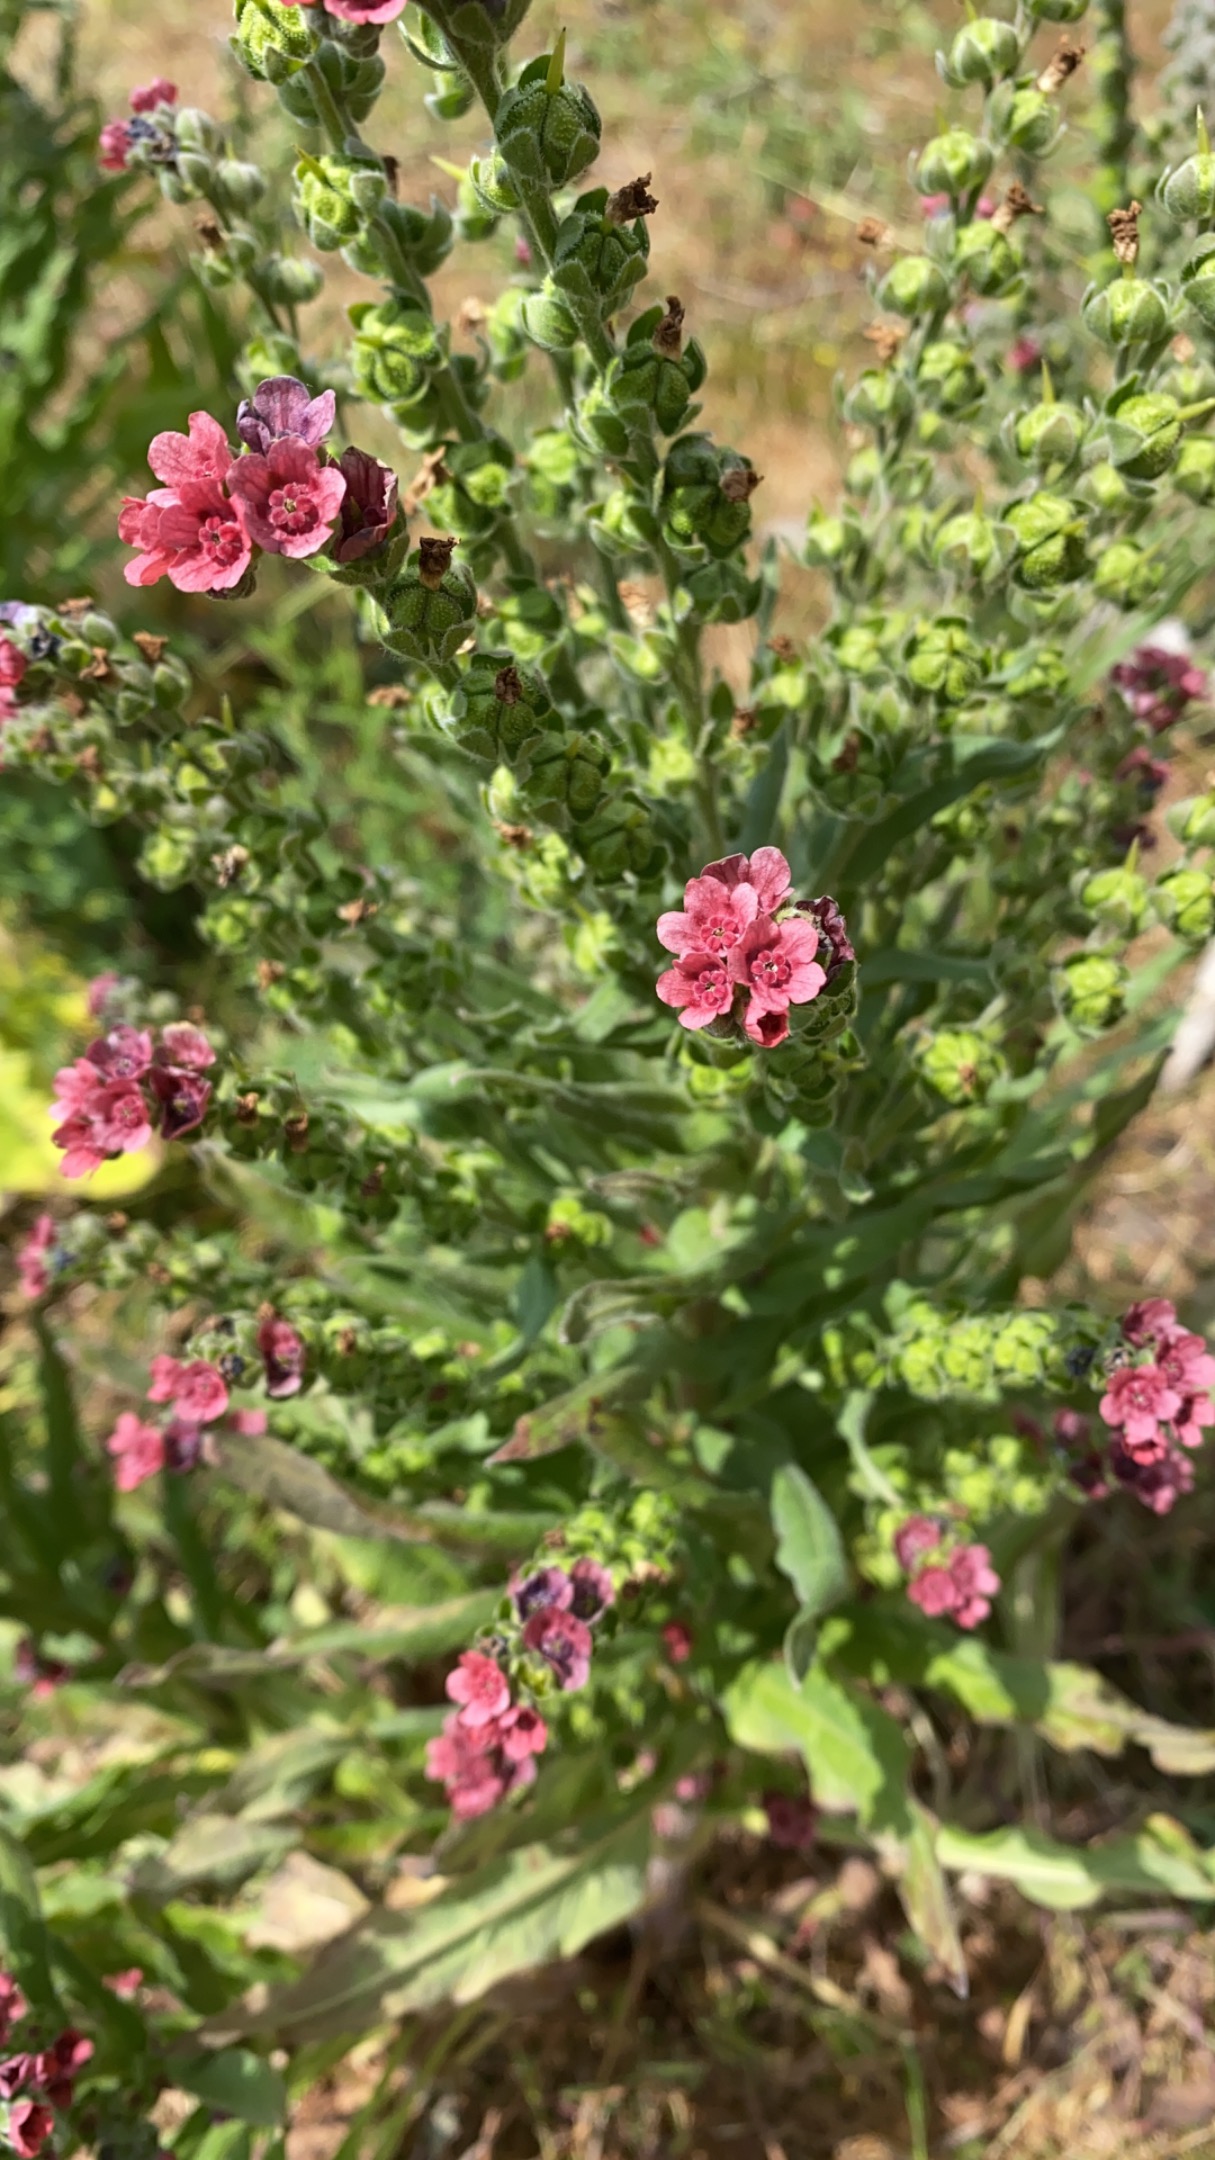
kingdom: Plantae
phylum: Tracheophyta
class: Magnoliopsida
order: Boraginales
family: Boraginaceae
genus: Cynoglossum
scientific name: Cynoglossum officinale
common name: Hundetunge
